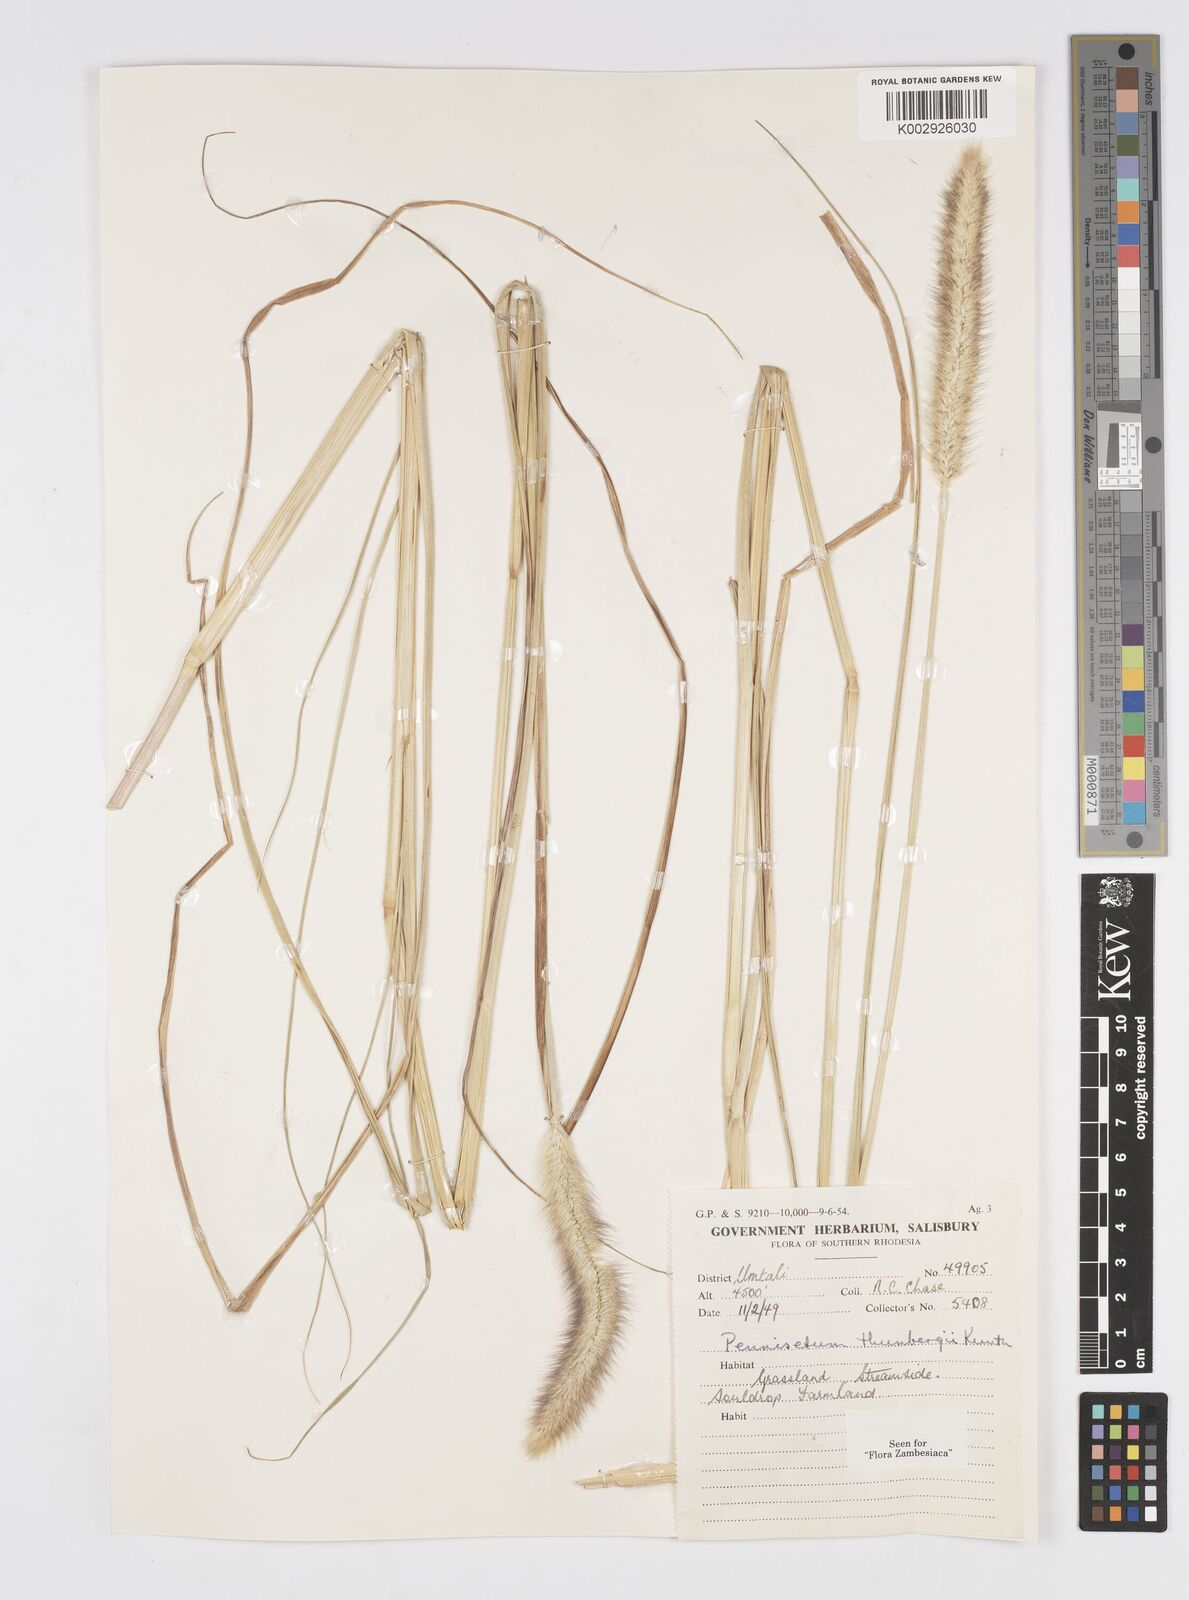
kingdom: Plantae
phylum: Tracheophyta
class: Liliopsida
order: Poales
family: Poaceae
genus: Cenchrus
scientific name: Cenchrus geniculatus
